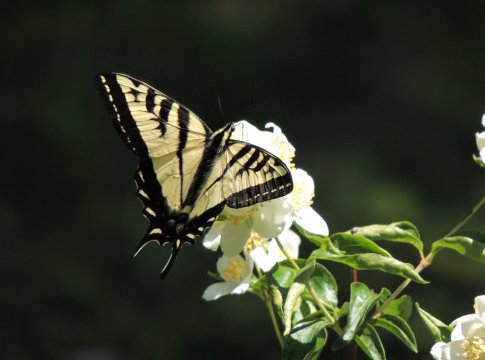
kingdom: Animalia
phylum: Arthropoda
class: Insecta
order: Lepidoptera
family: Papilionidae
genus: Pterourus
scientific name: Pterourus rutulus
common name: Western Tiger Swallowtail
